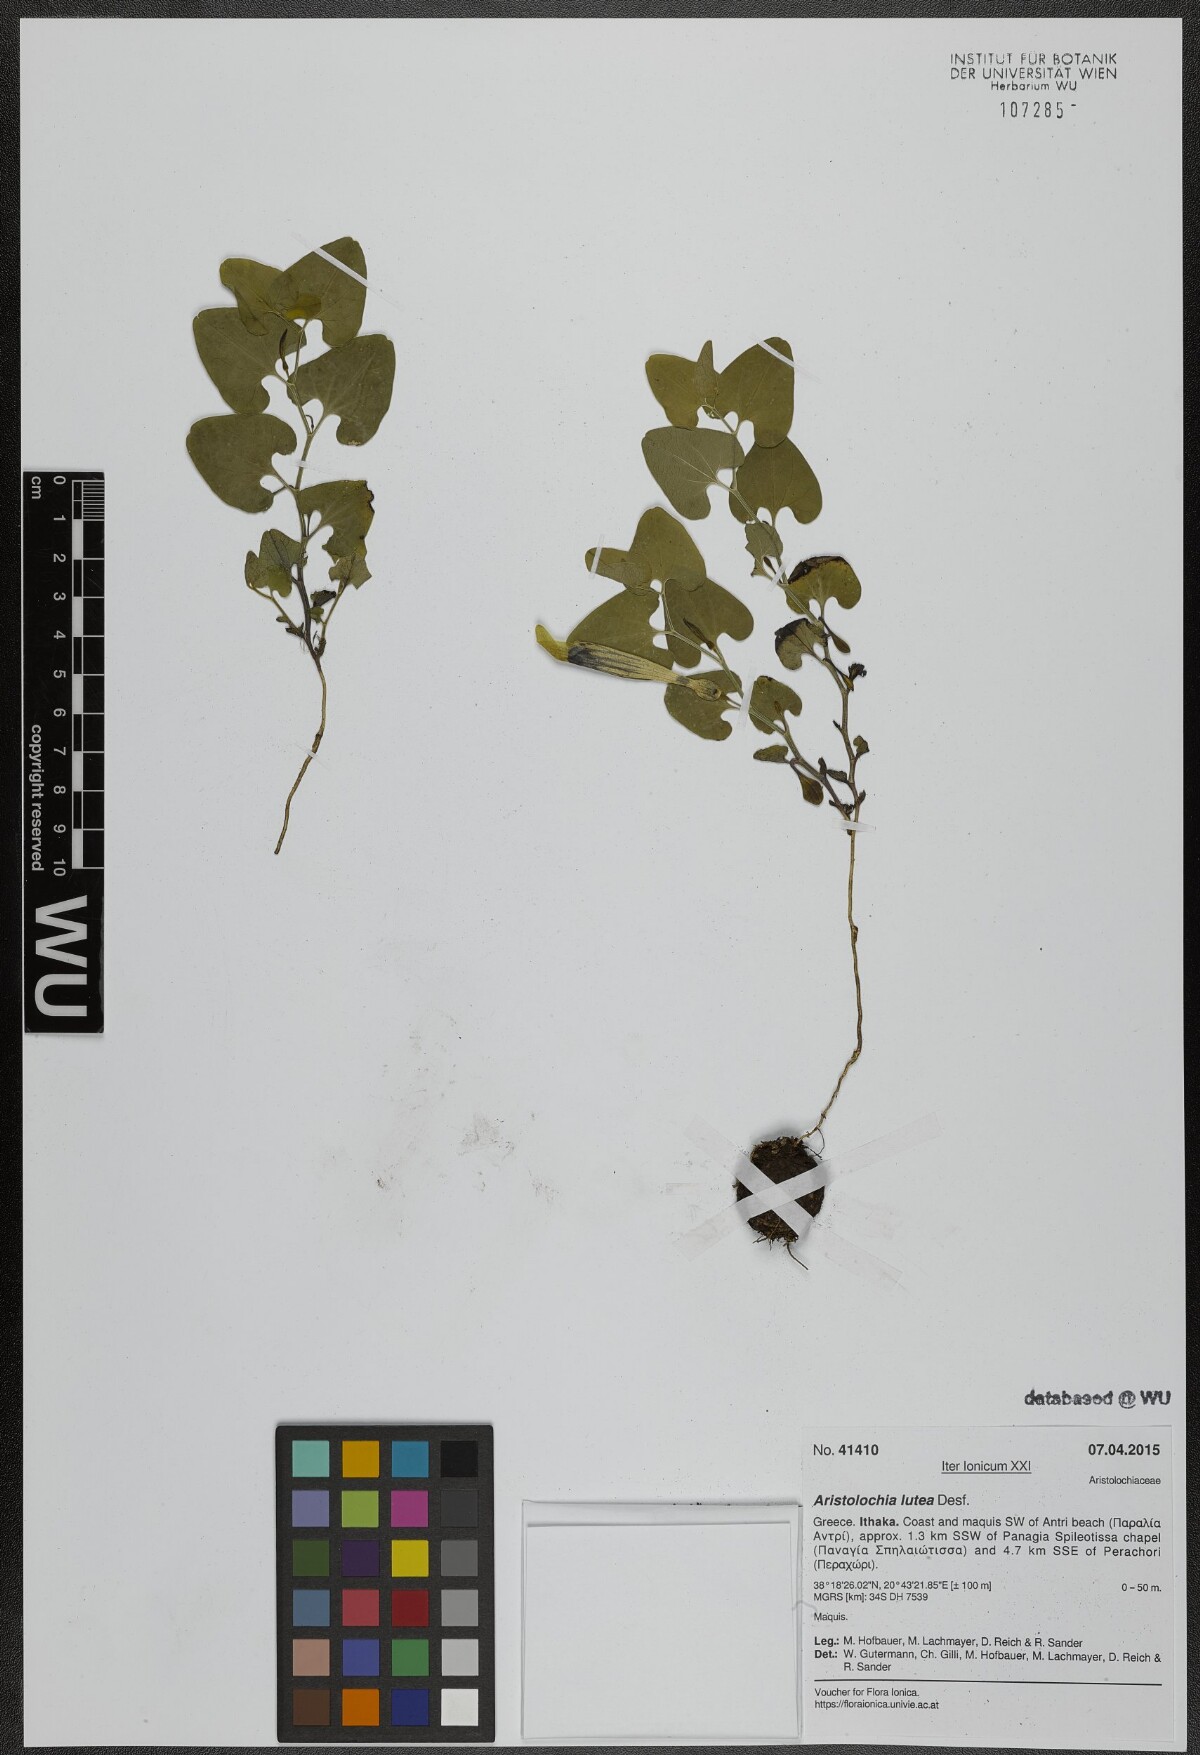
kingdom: Plantae
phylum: Tracheophyta
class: Magnoliopsida
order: Piperales
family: Aristolochiaceae
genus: Aristolochia
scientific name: Aristolochia lutea
